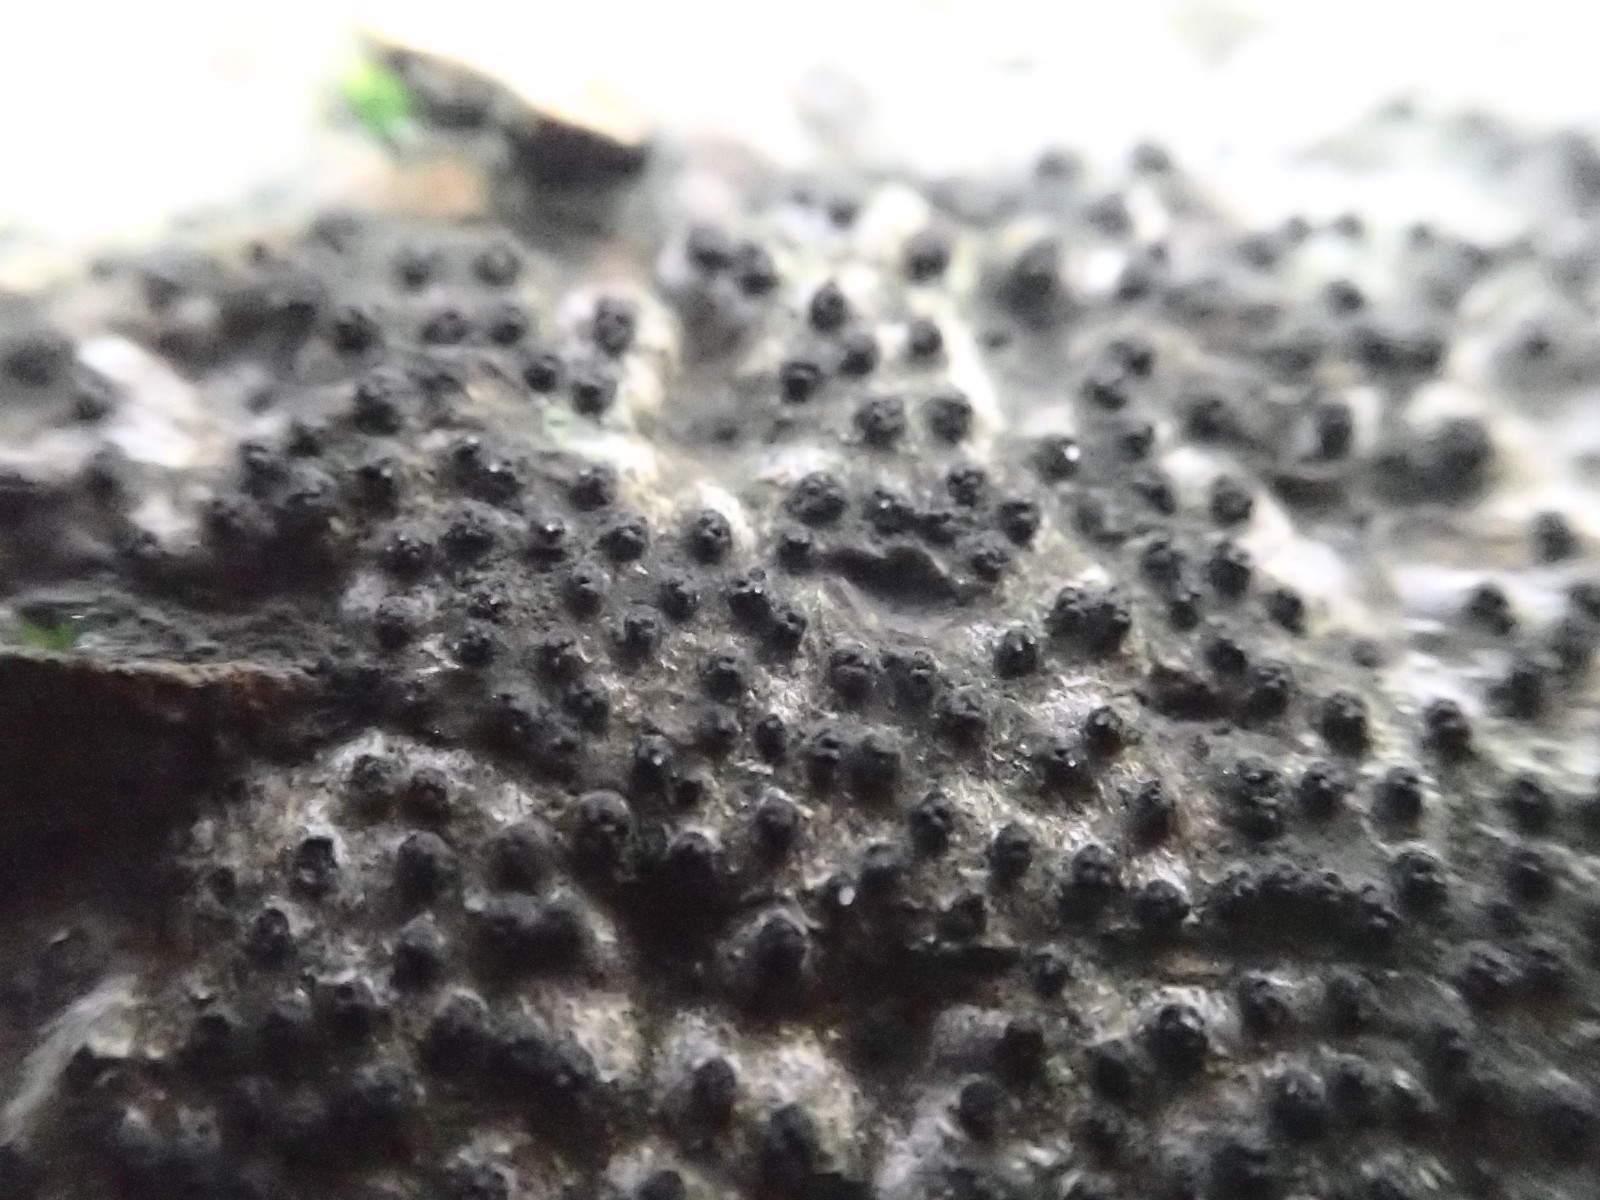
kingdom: Fungi
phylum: Ascomycota
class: Sordariomycetes
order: Xylariales
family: Diatrypaceae
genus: Eutypella
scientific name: Eutypella quaternata
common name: bøge-korsprik
